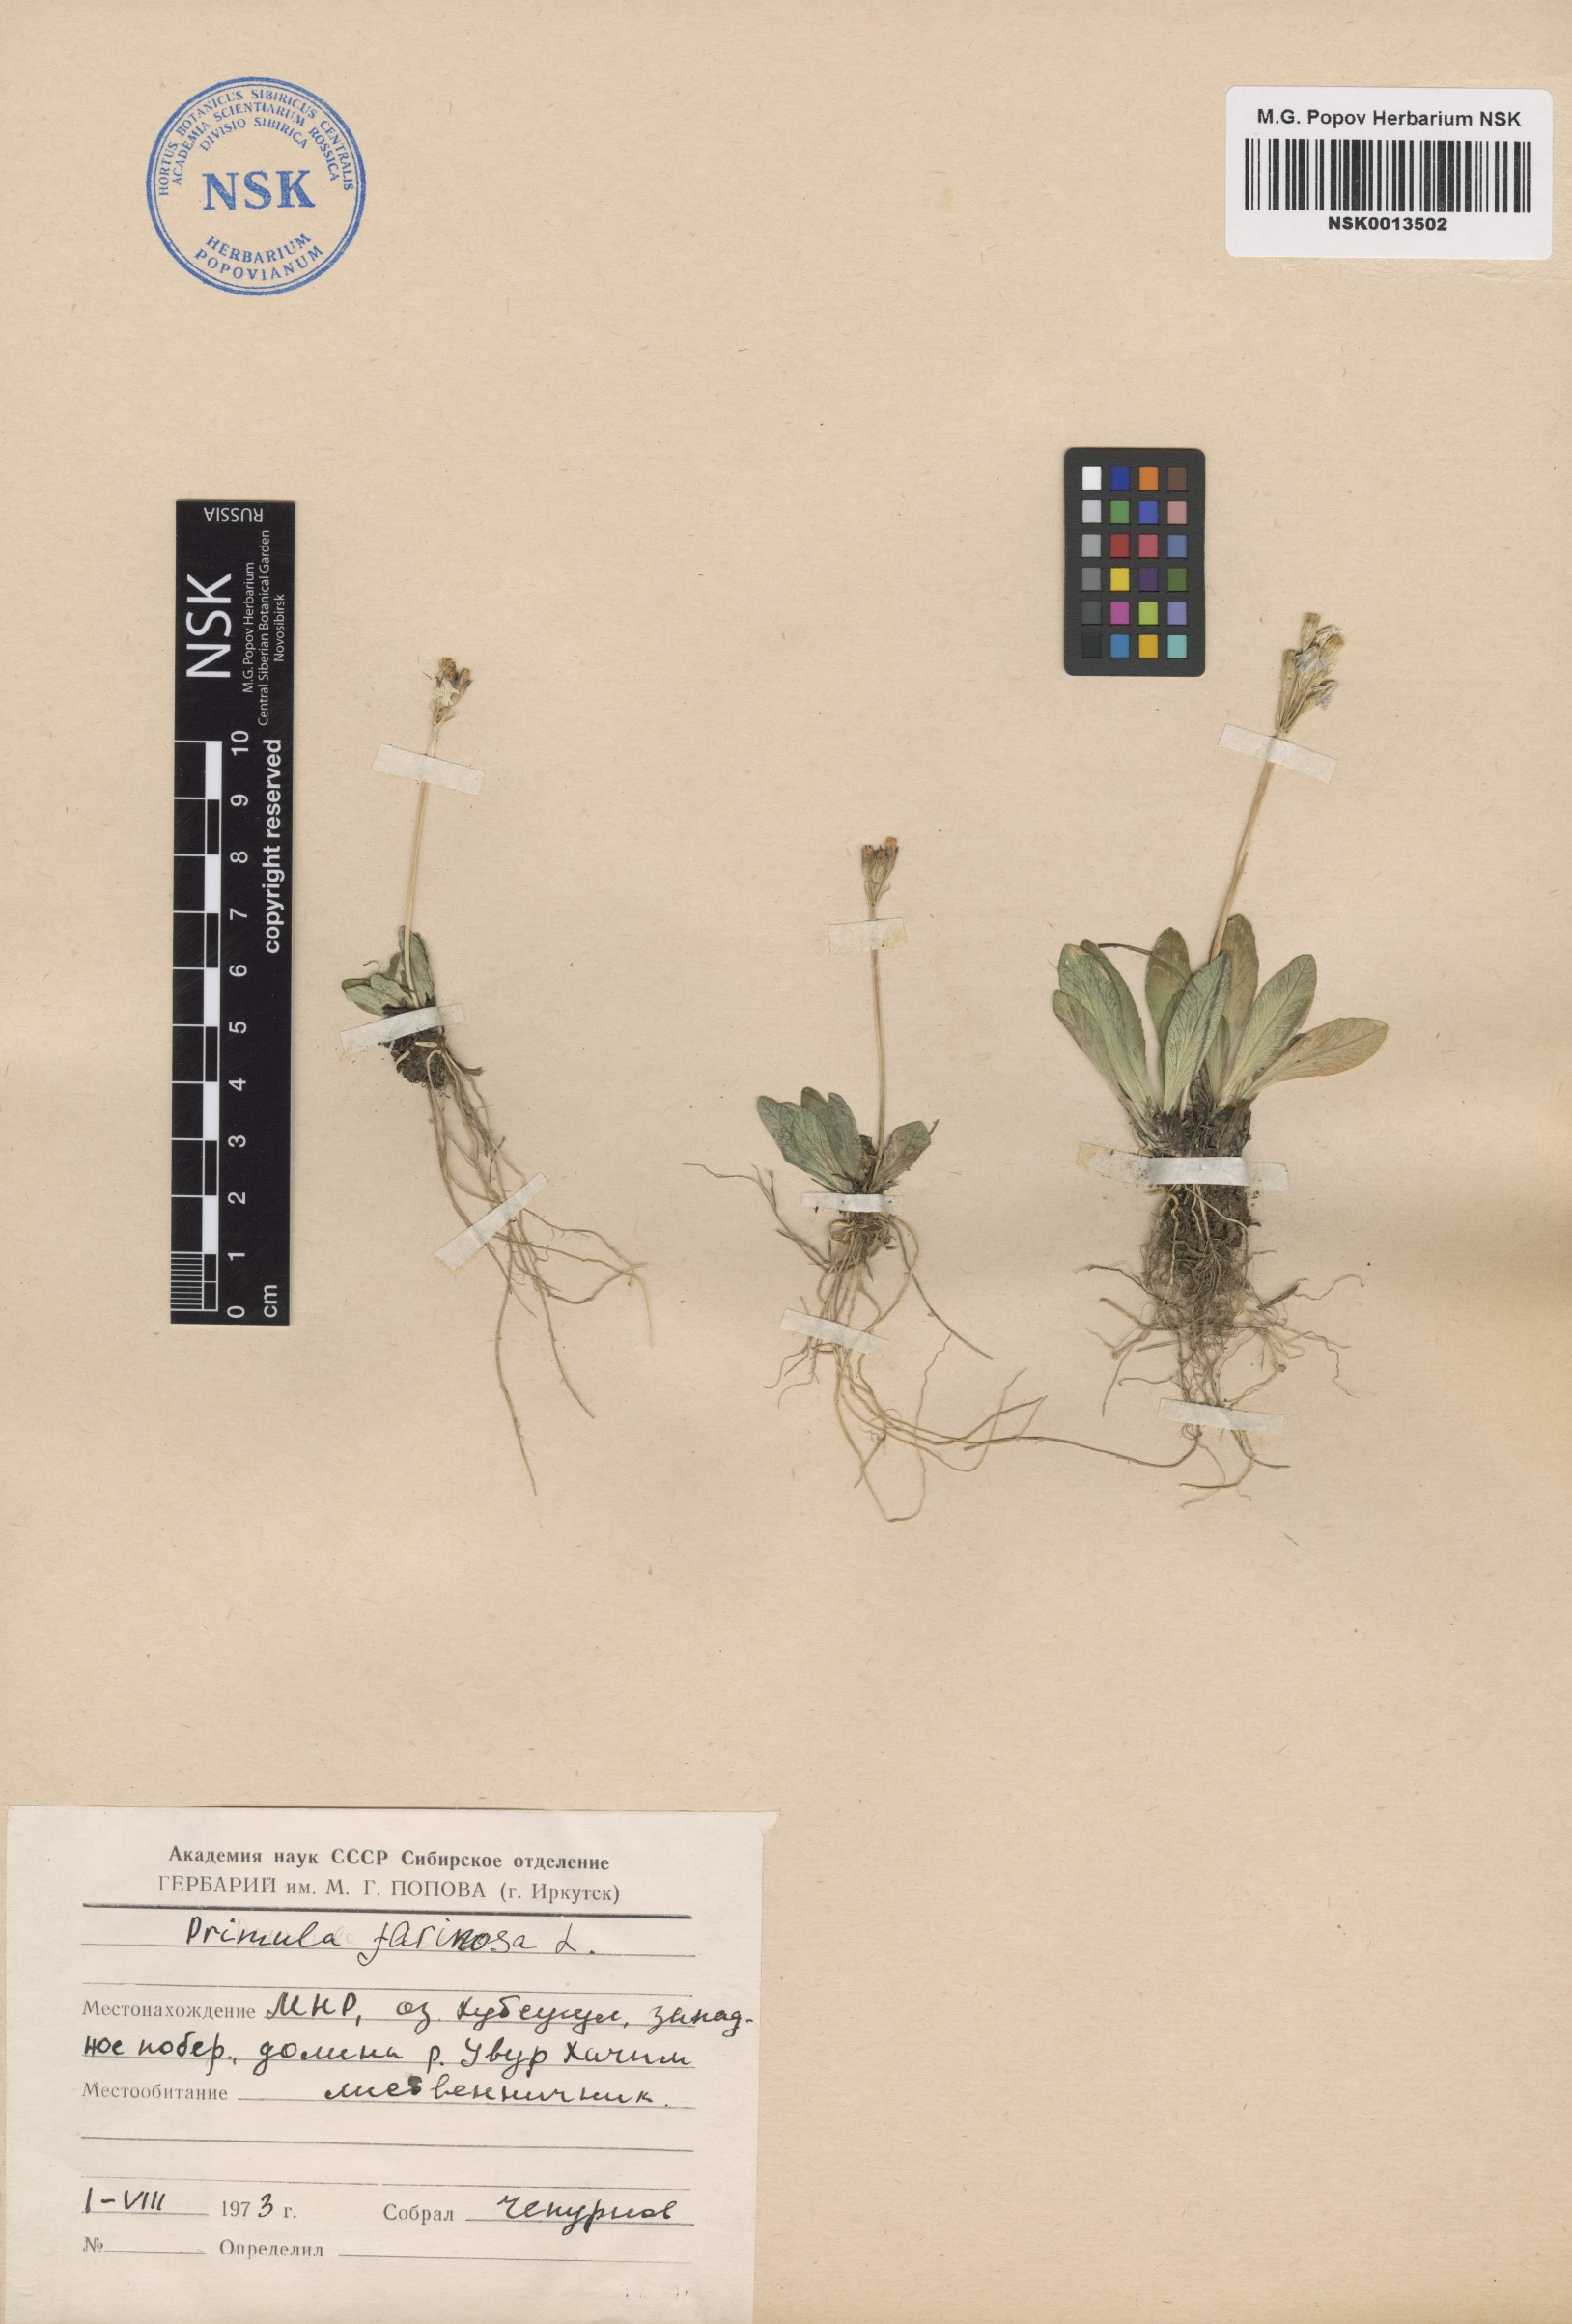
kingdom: Plantae
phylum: Tracheophyta
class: Magnoliopsida
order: Ericales
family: Primulaceae
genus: Primula
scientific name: Primula farinosa
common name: Bird's-eye primrose
